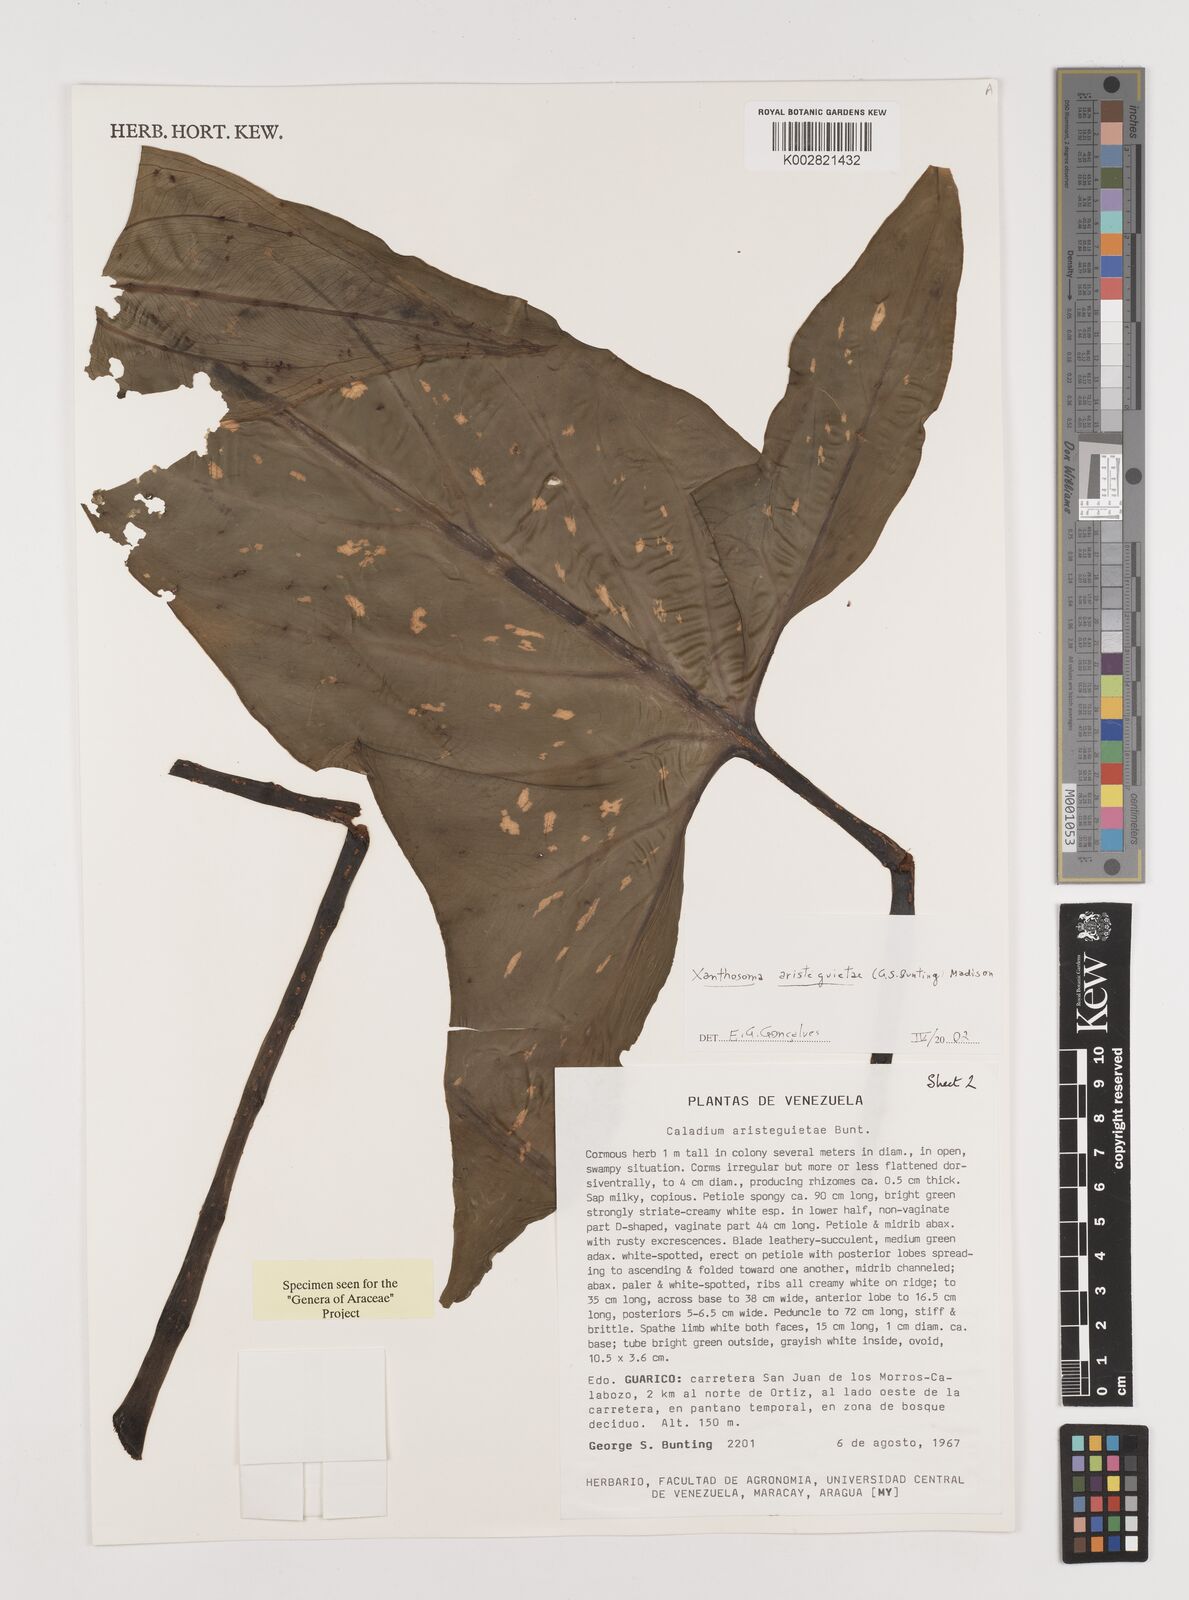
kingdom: Plantae
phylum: Tracheophyta
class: Liliopsida
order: Alismatales
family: Araceae
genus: Xanthosoma
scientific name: Xanthosoma aristeguietae
